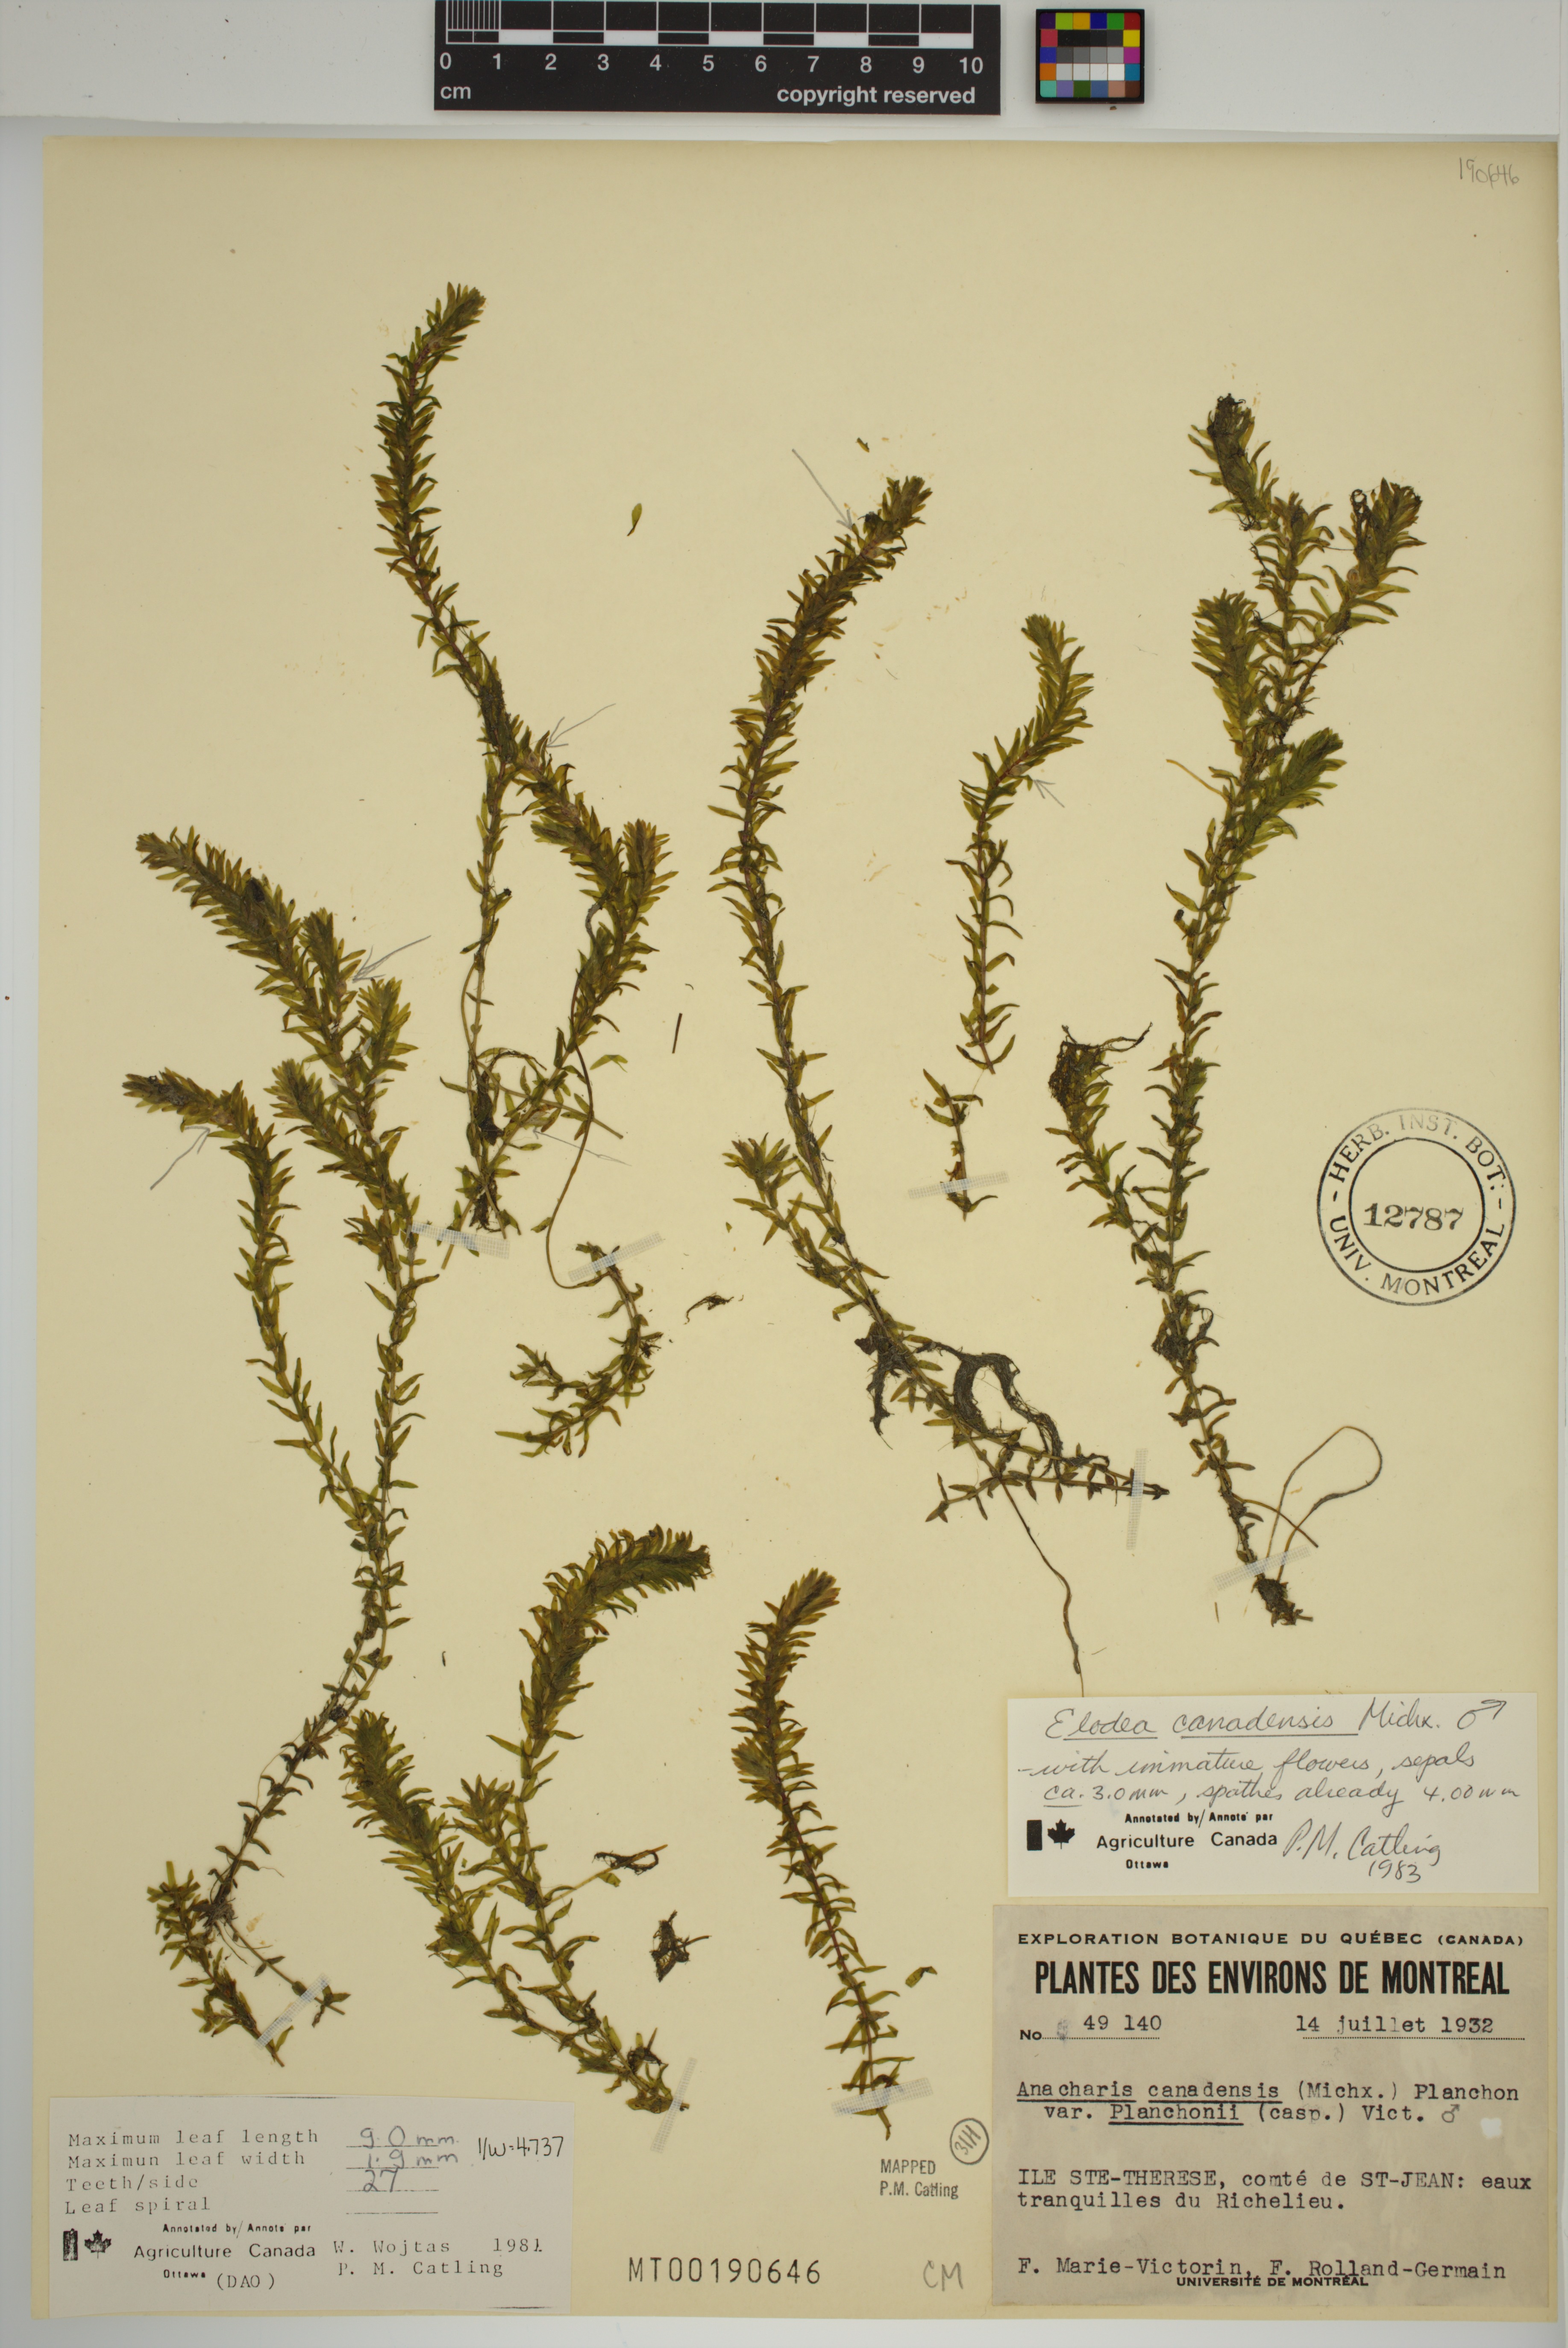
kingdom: Plantae
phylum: Tracheophyta
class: Liliopsida
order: Alismatales
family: Hydrocharitaceae
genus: Elodea
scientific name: Elodea canadensis
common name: Canadian waterweed
